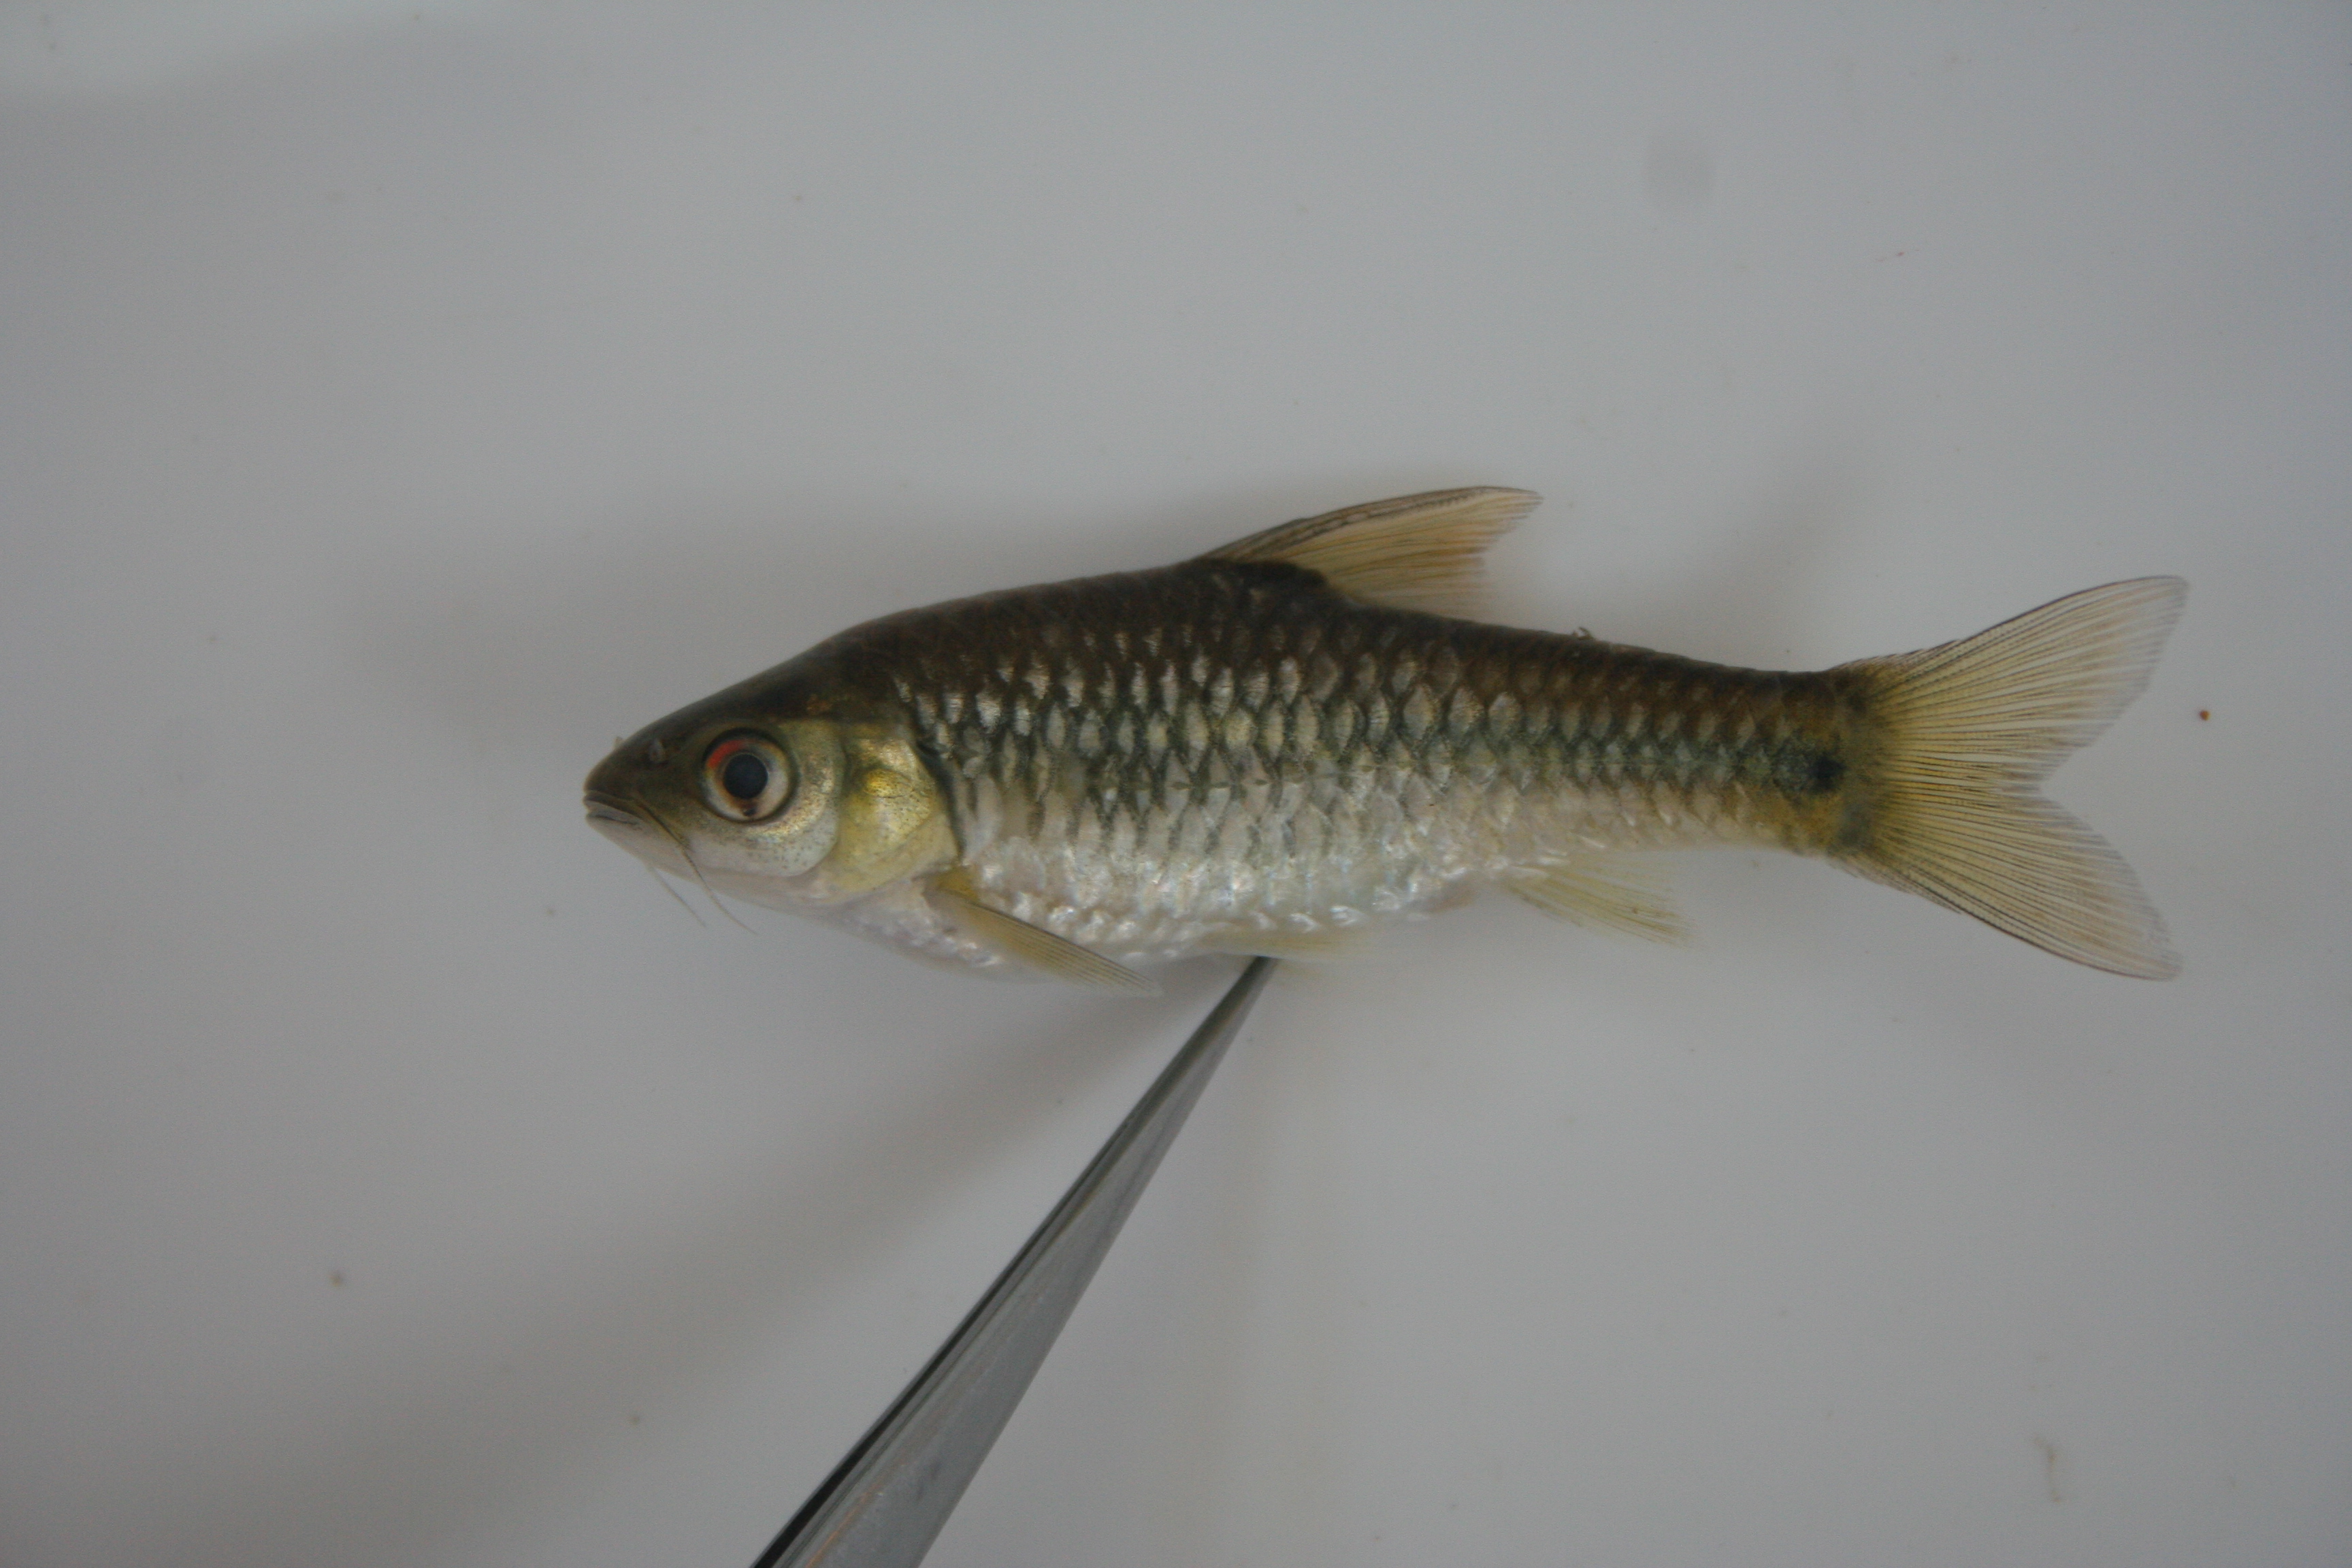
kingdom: Animalia
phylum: Chordata
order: Cypriniformes
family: Cyprinidae
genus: Enteromius
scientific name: Enteromius kessleri
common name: Gillbar barb
